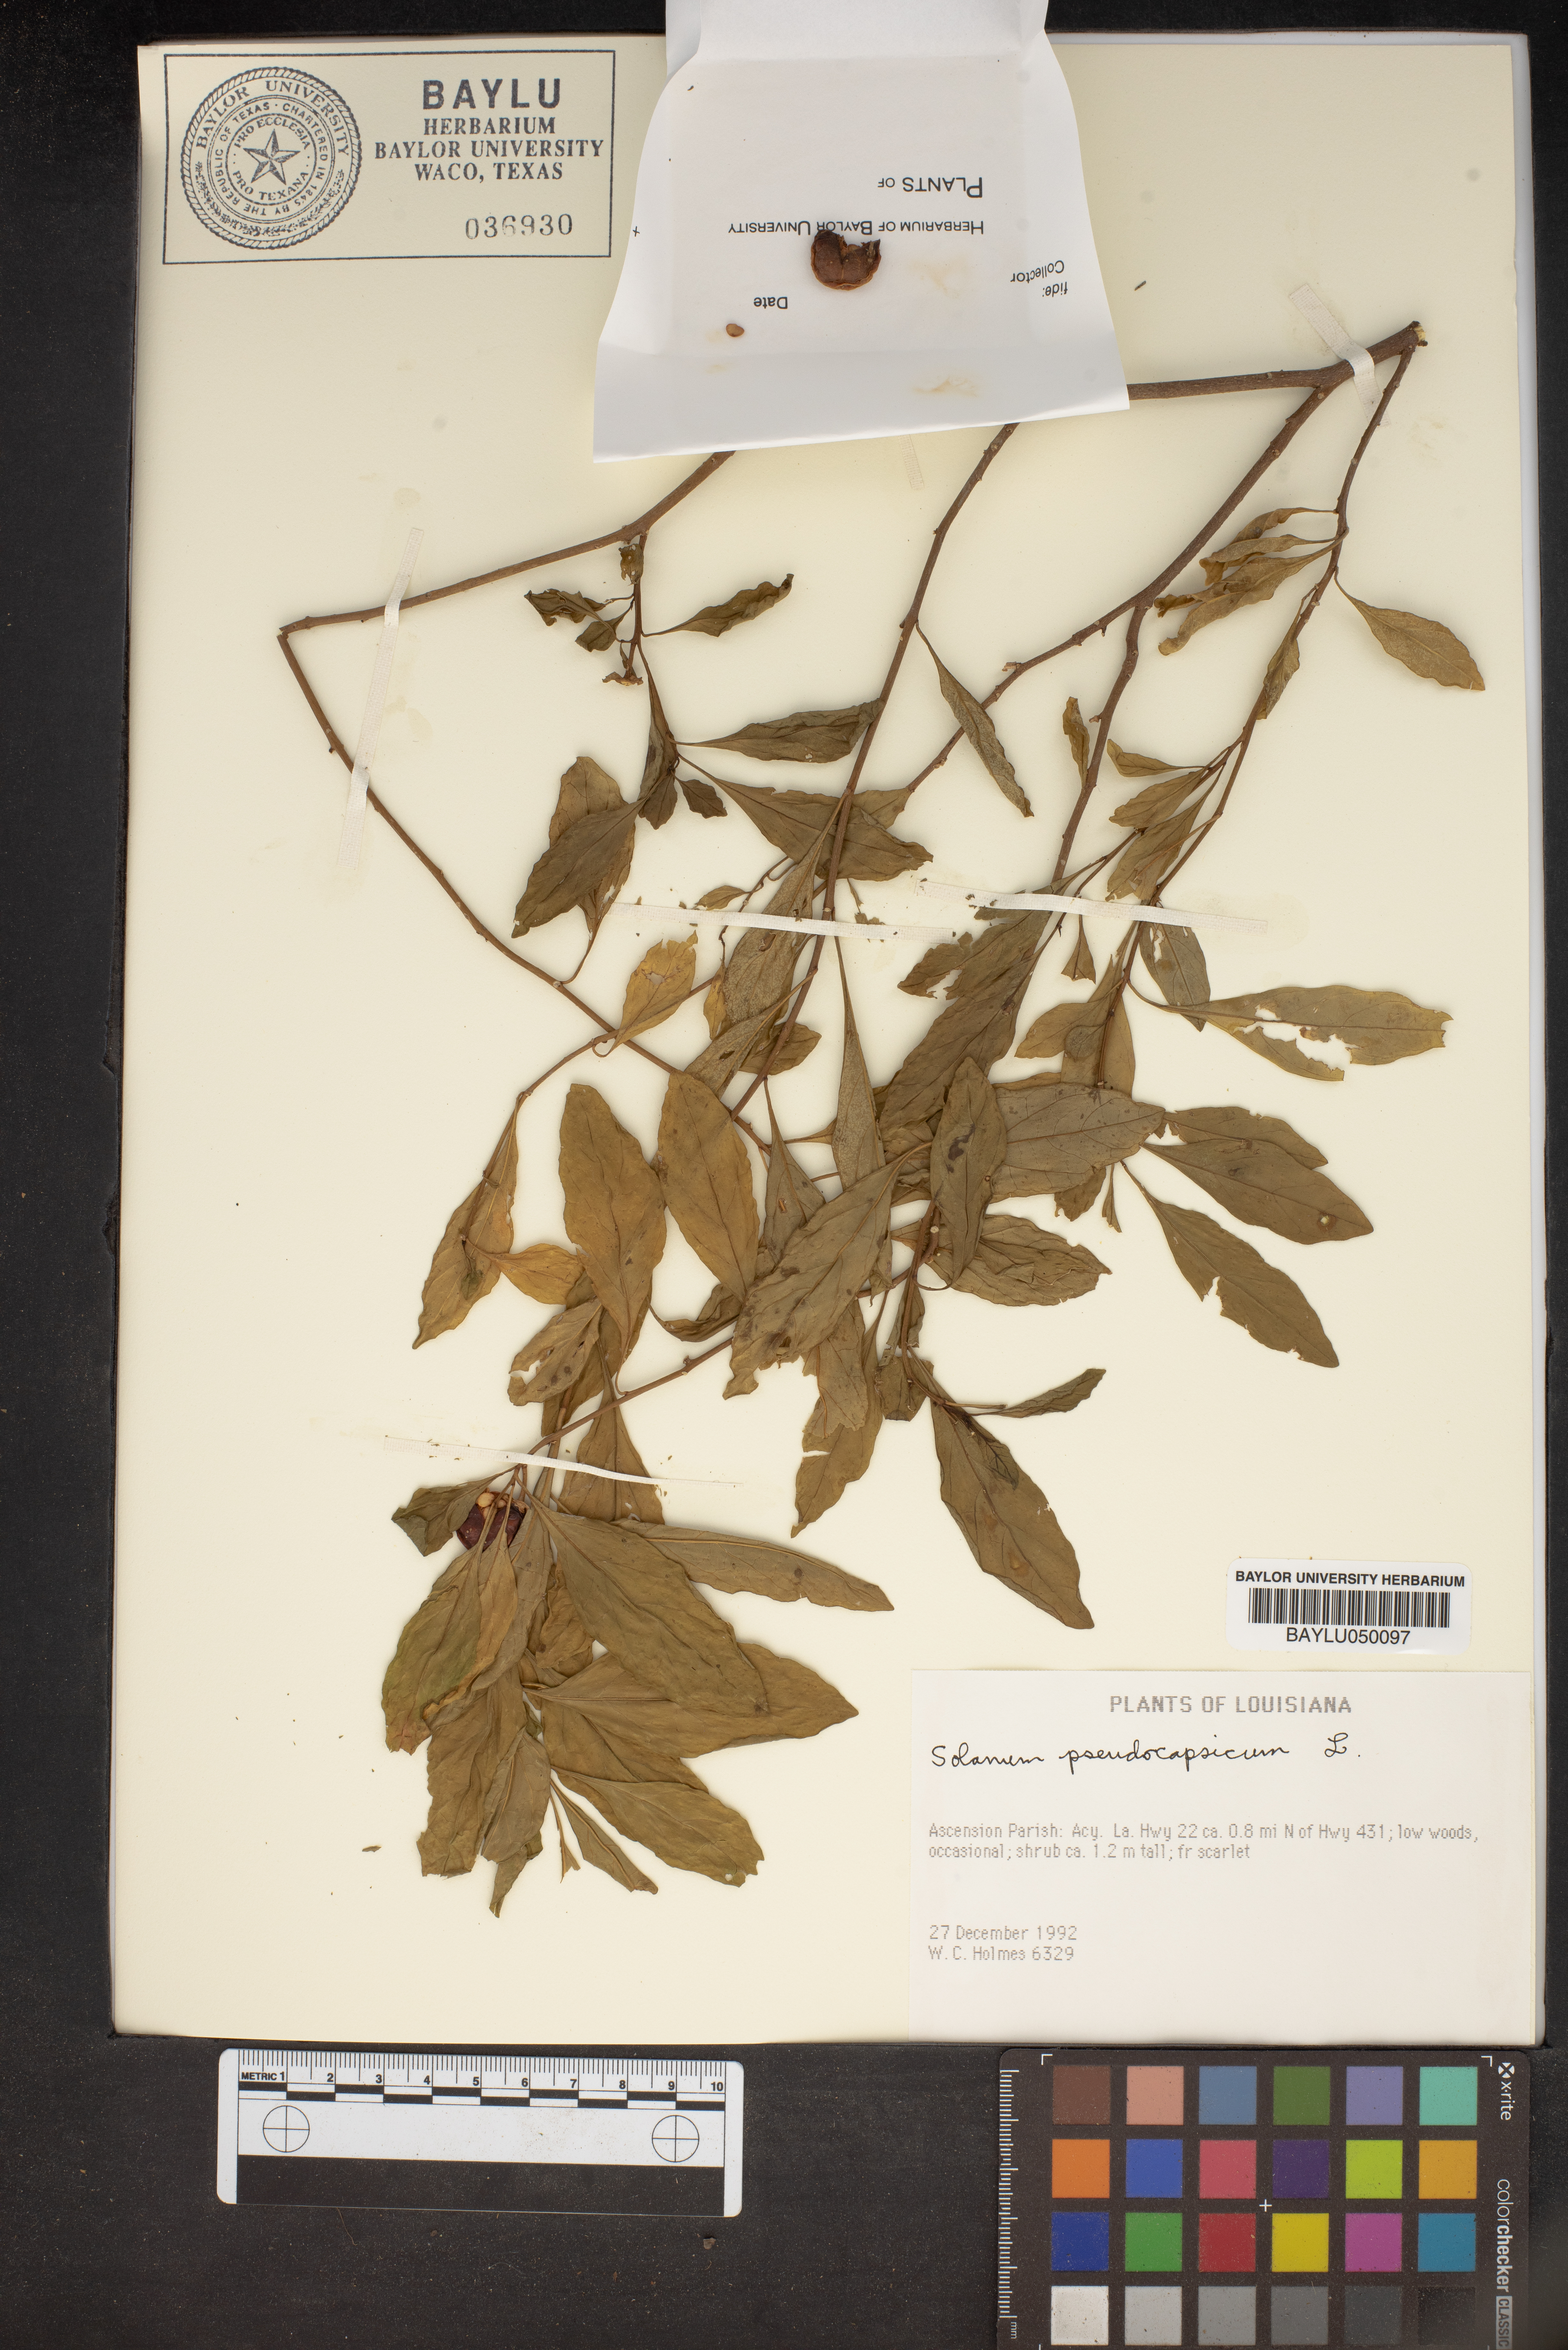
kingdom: Plantae
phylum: Tracheophyta
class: Magnoliopsida
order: Solanales
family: Solanaceae
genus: Solanum
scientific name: Solanum pseudocapsicum
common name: Jerusalem cherry
